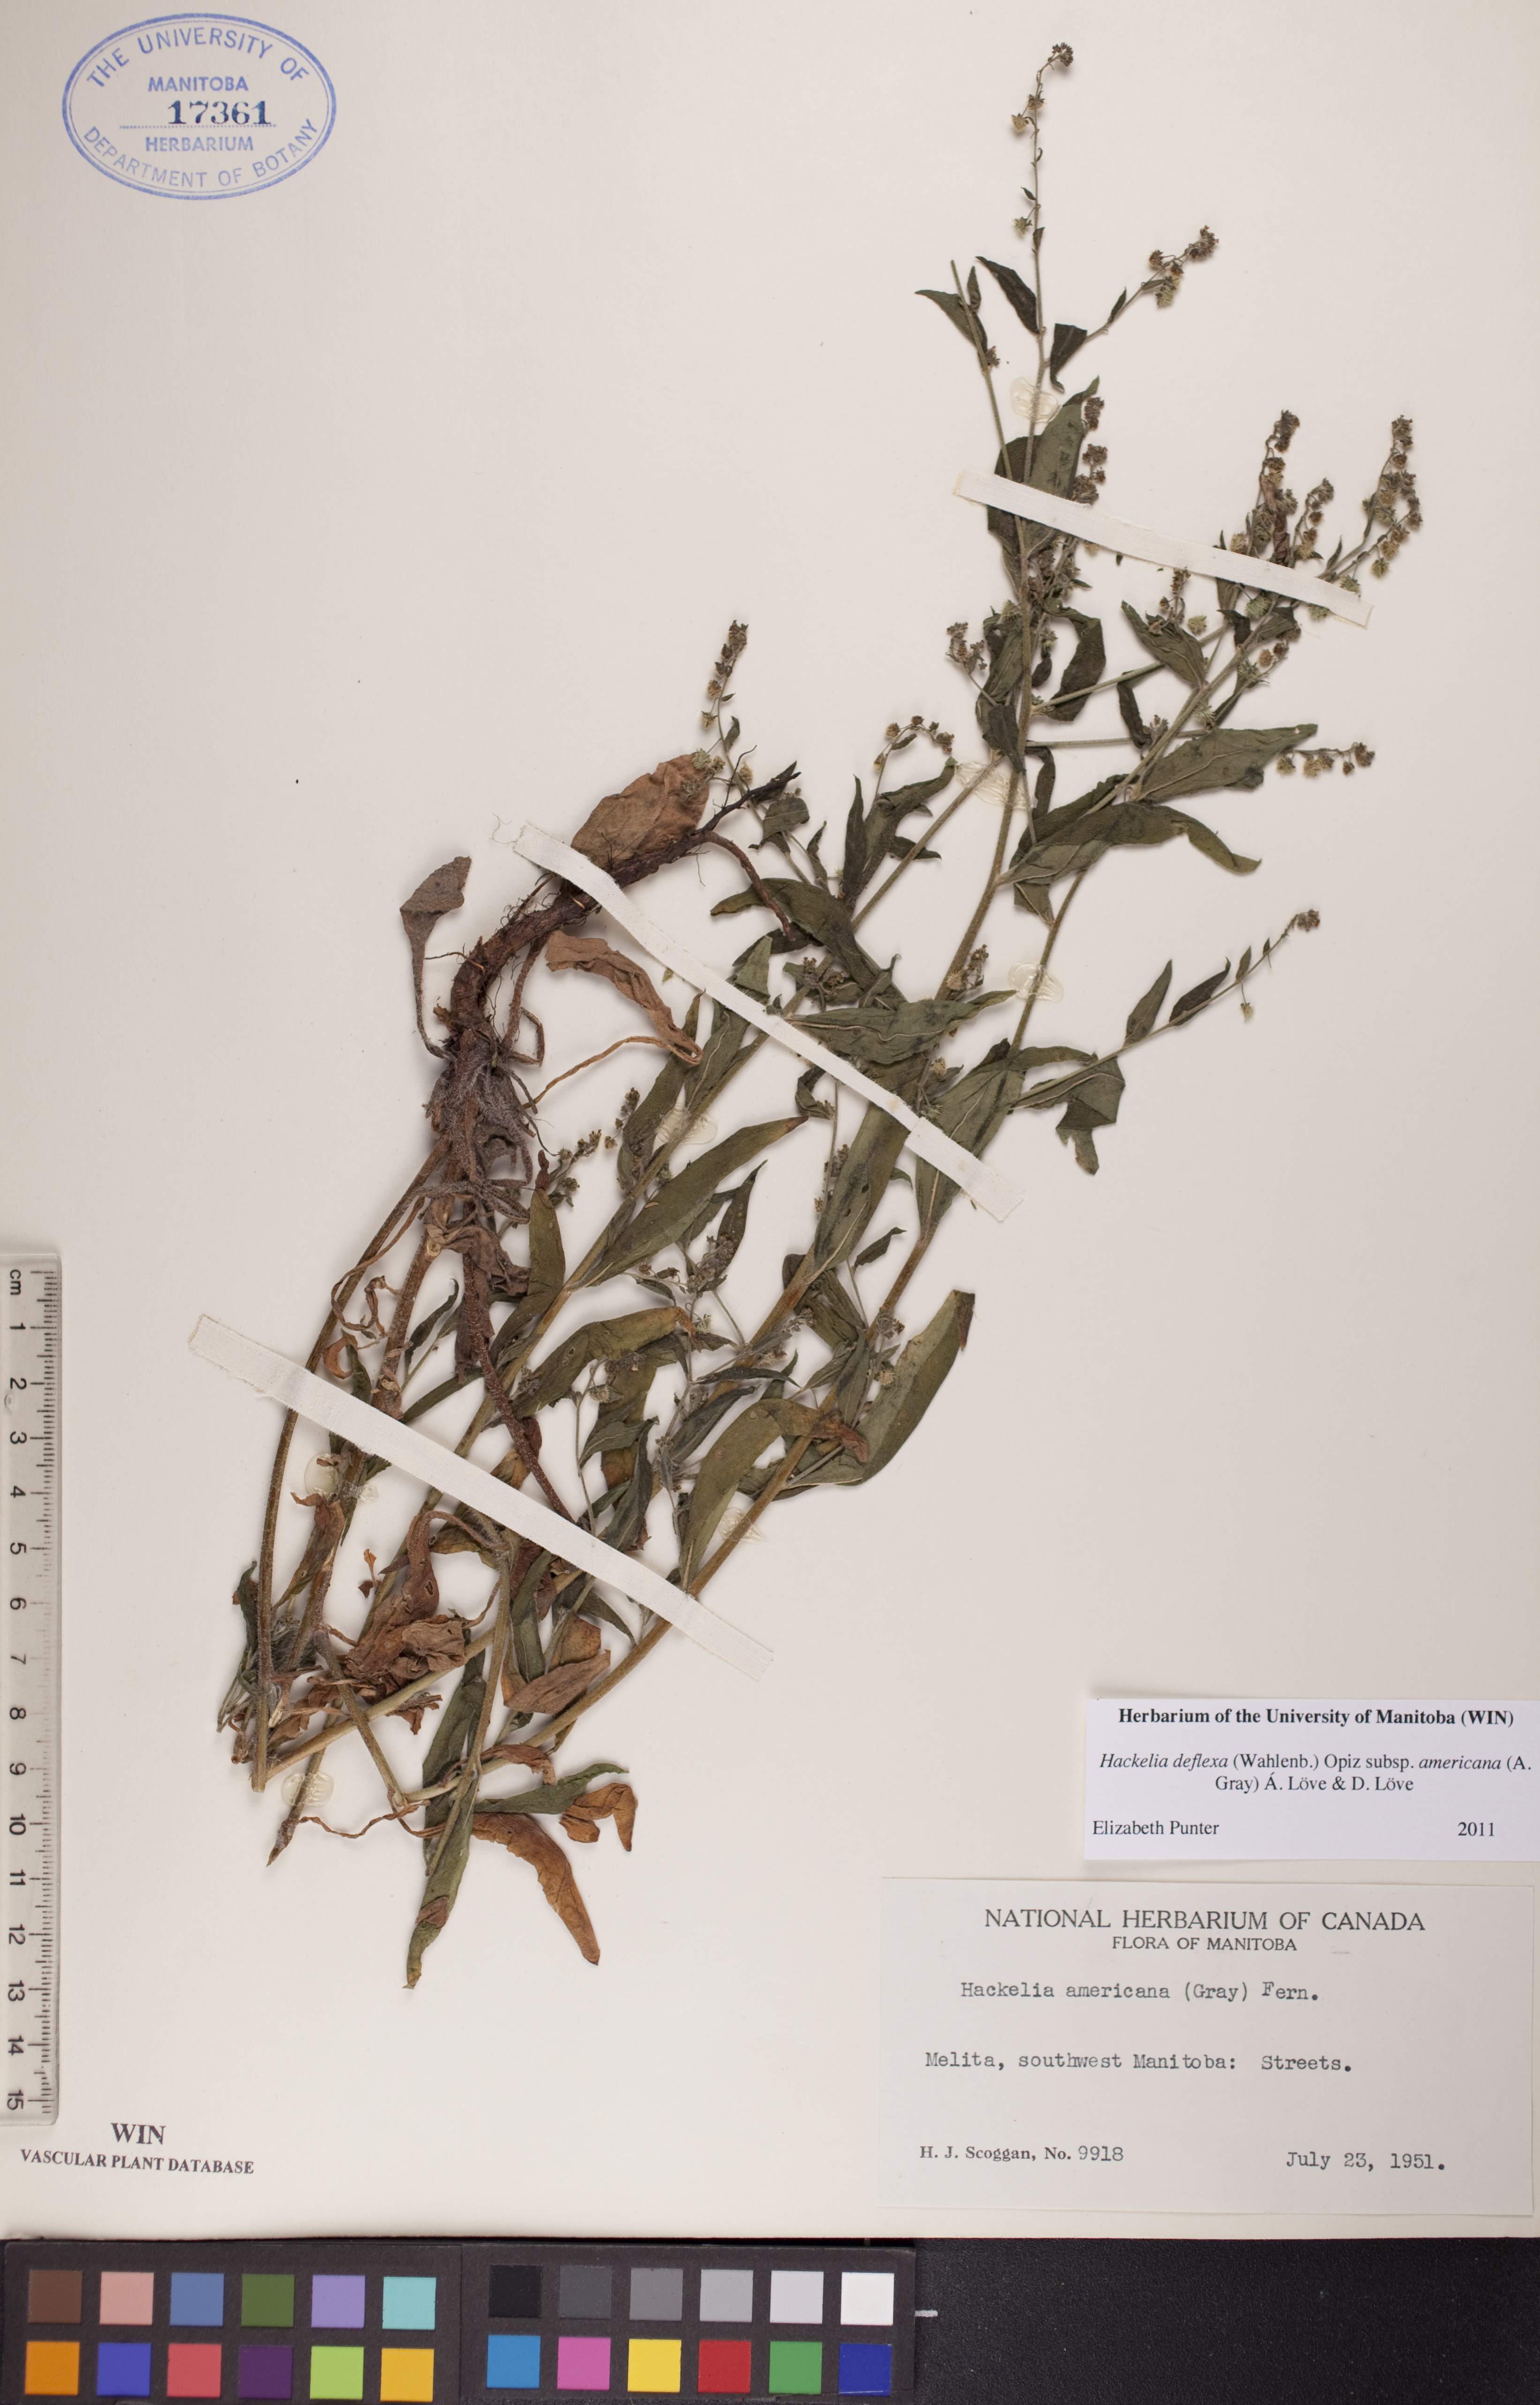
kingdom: Plantae
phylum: Tracheophyta
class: Magnoliopsida
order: Boraginales
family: Boraginaceae
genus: Hackelia
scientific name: Hackelia deflexa
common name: Nodding stickseed
